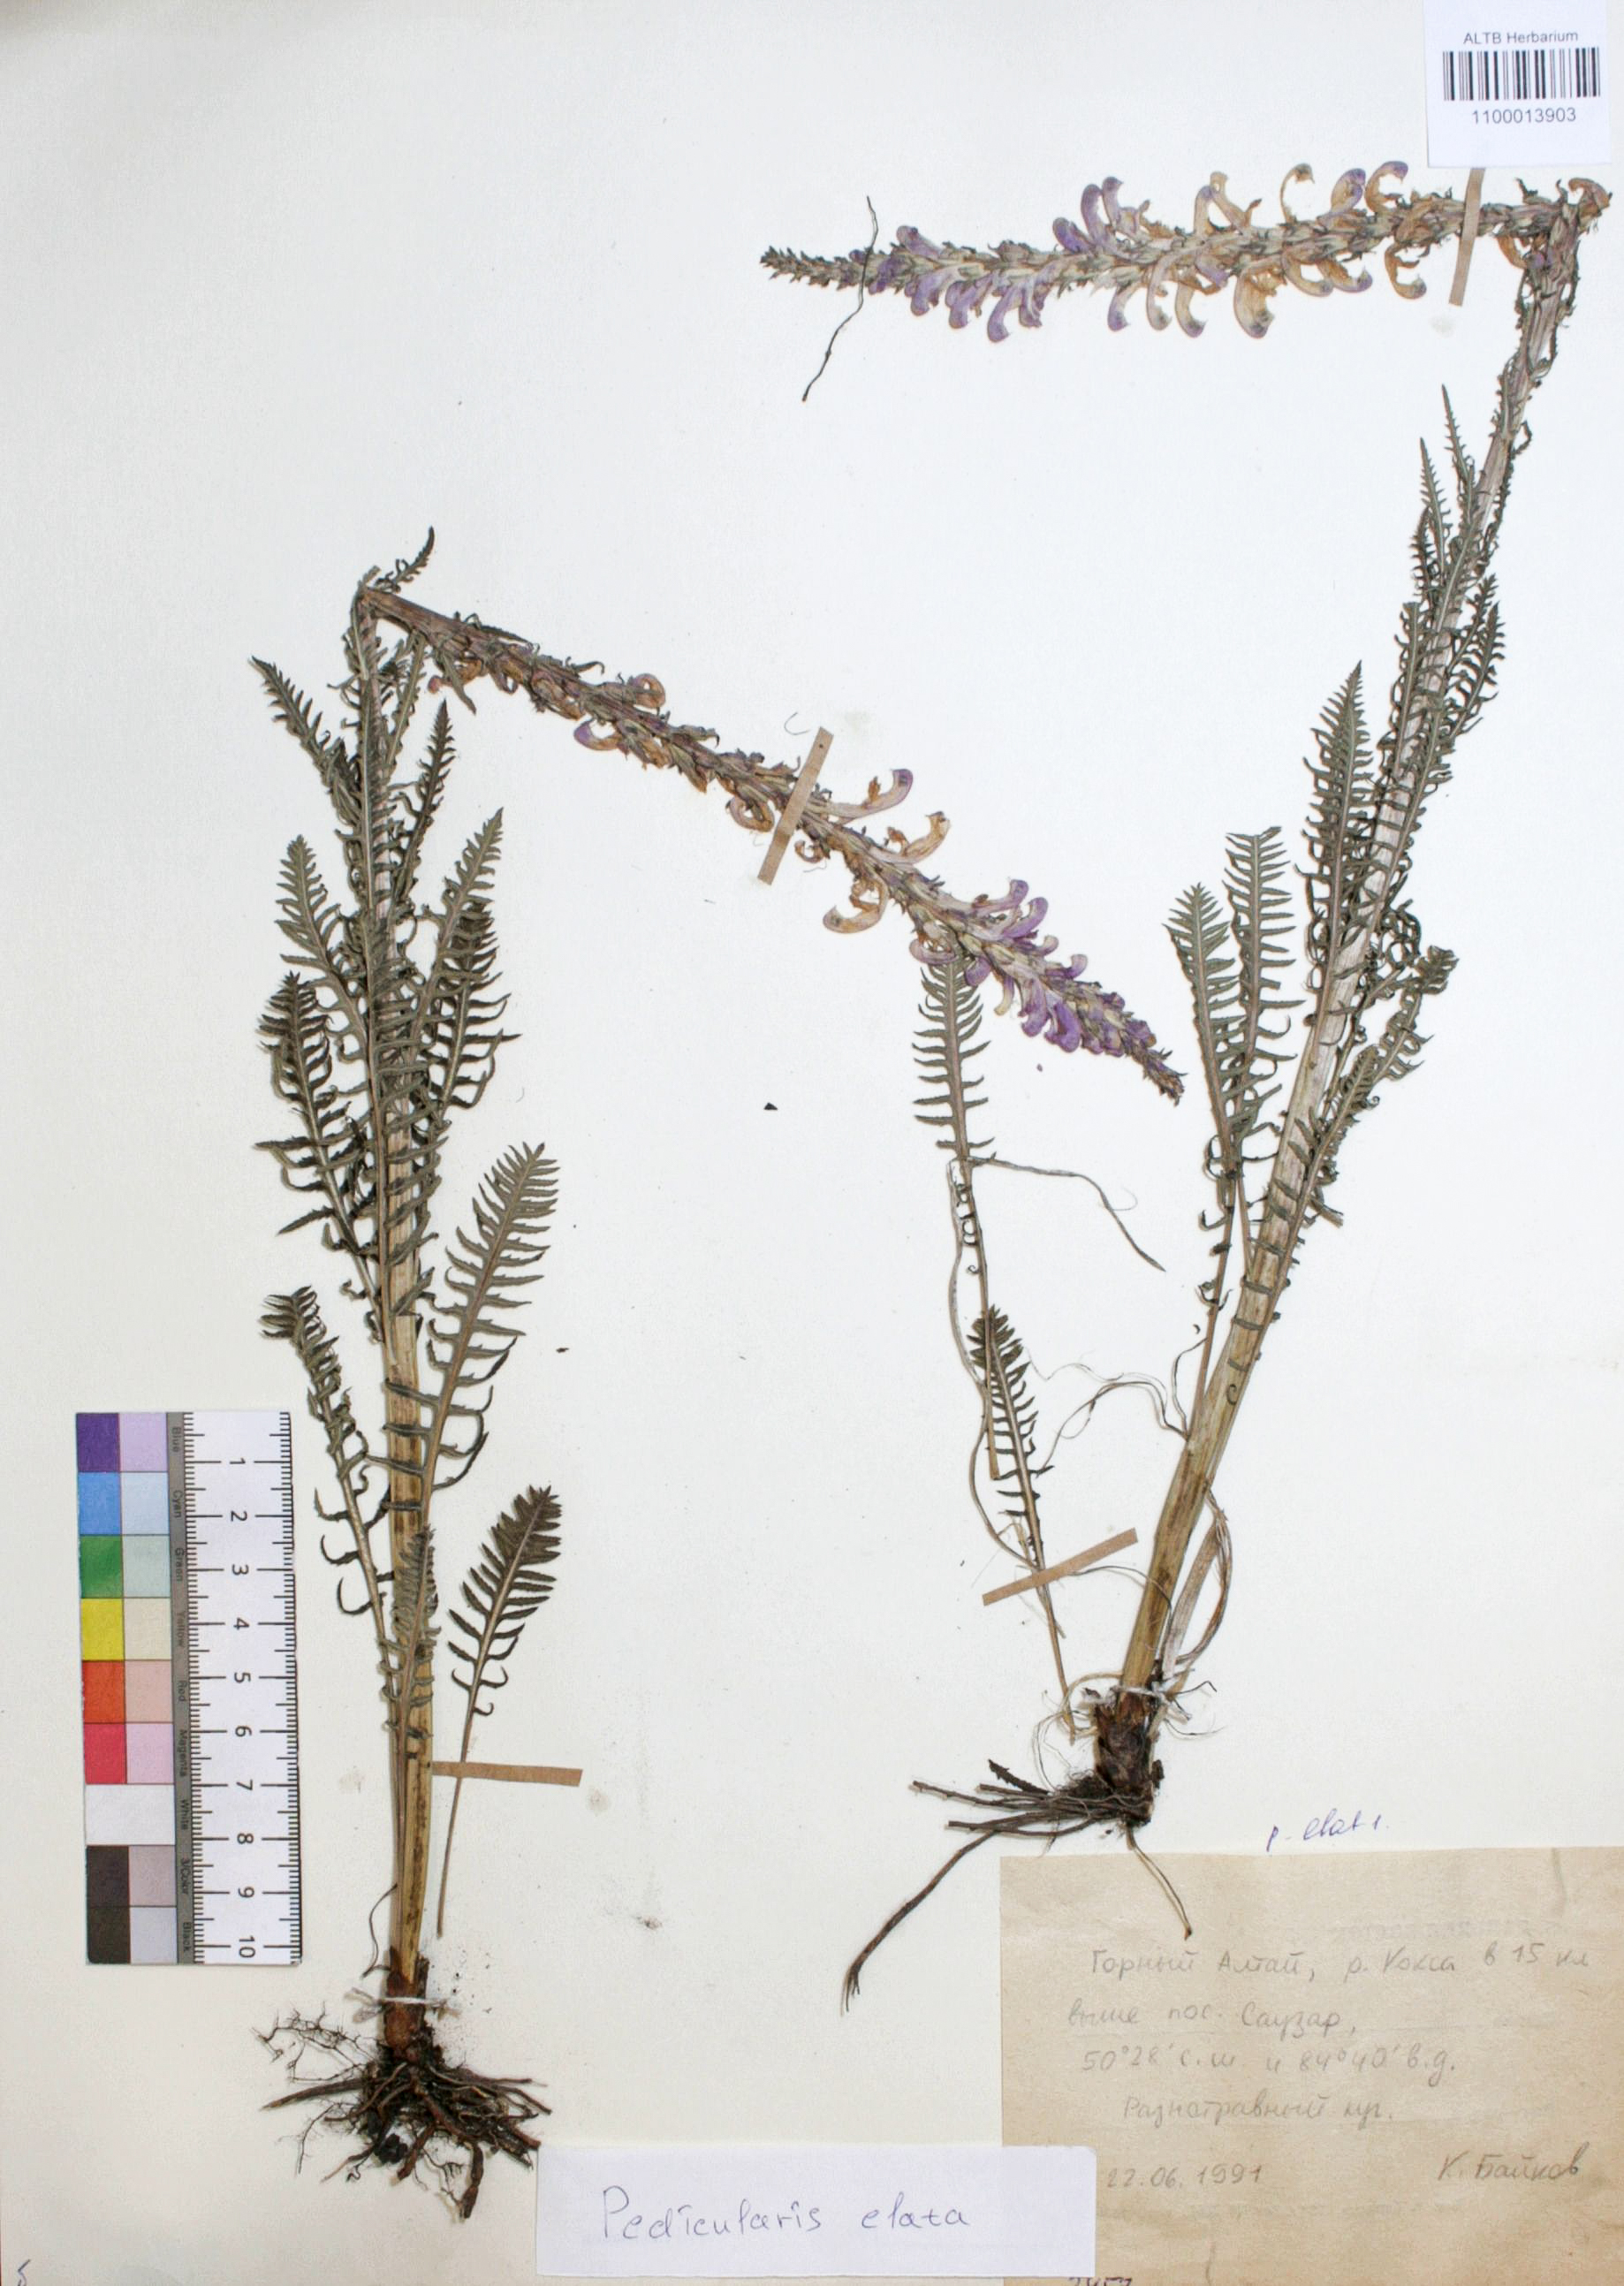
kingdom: Plantae
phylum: Tracheophyta
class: Magnoliopsida
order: Lamiales
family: Orobanchaceae
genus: Pedicularis
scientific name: Pedicularis elata
